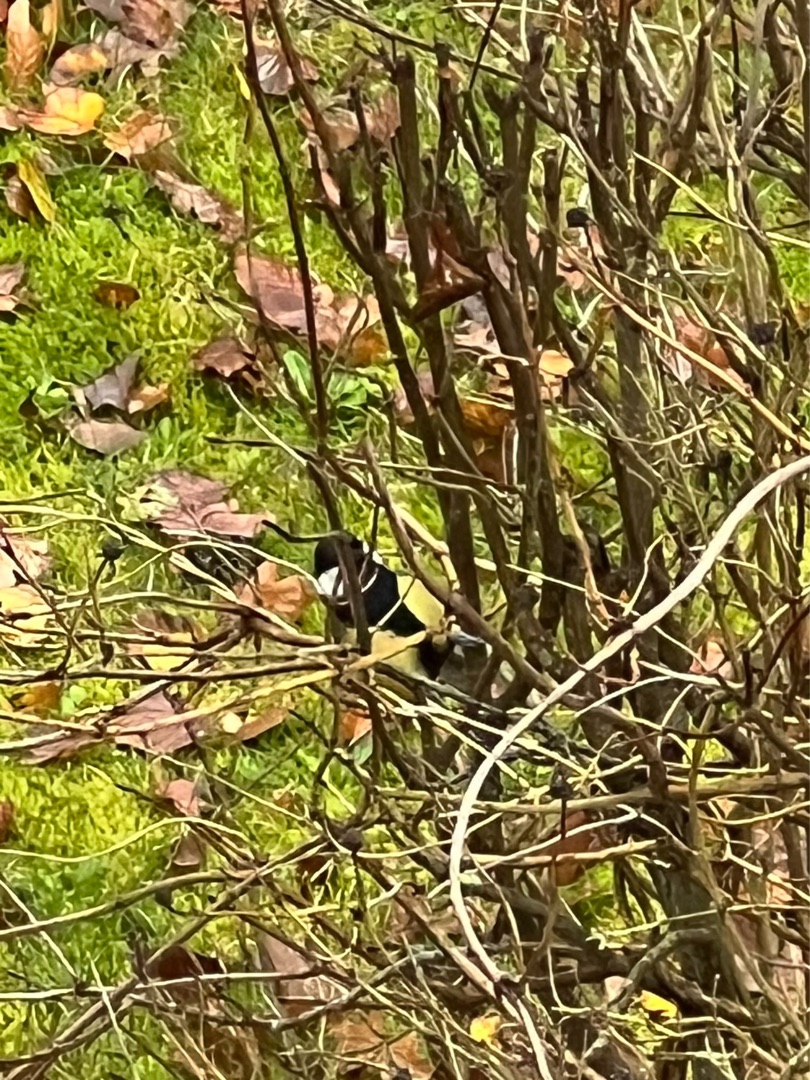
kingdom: Animalia
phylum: Chordata
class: Aves
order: Passeriformes
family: Paridae
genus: Parus
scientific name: Parus major
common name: Musvit
